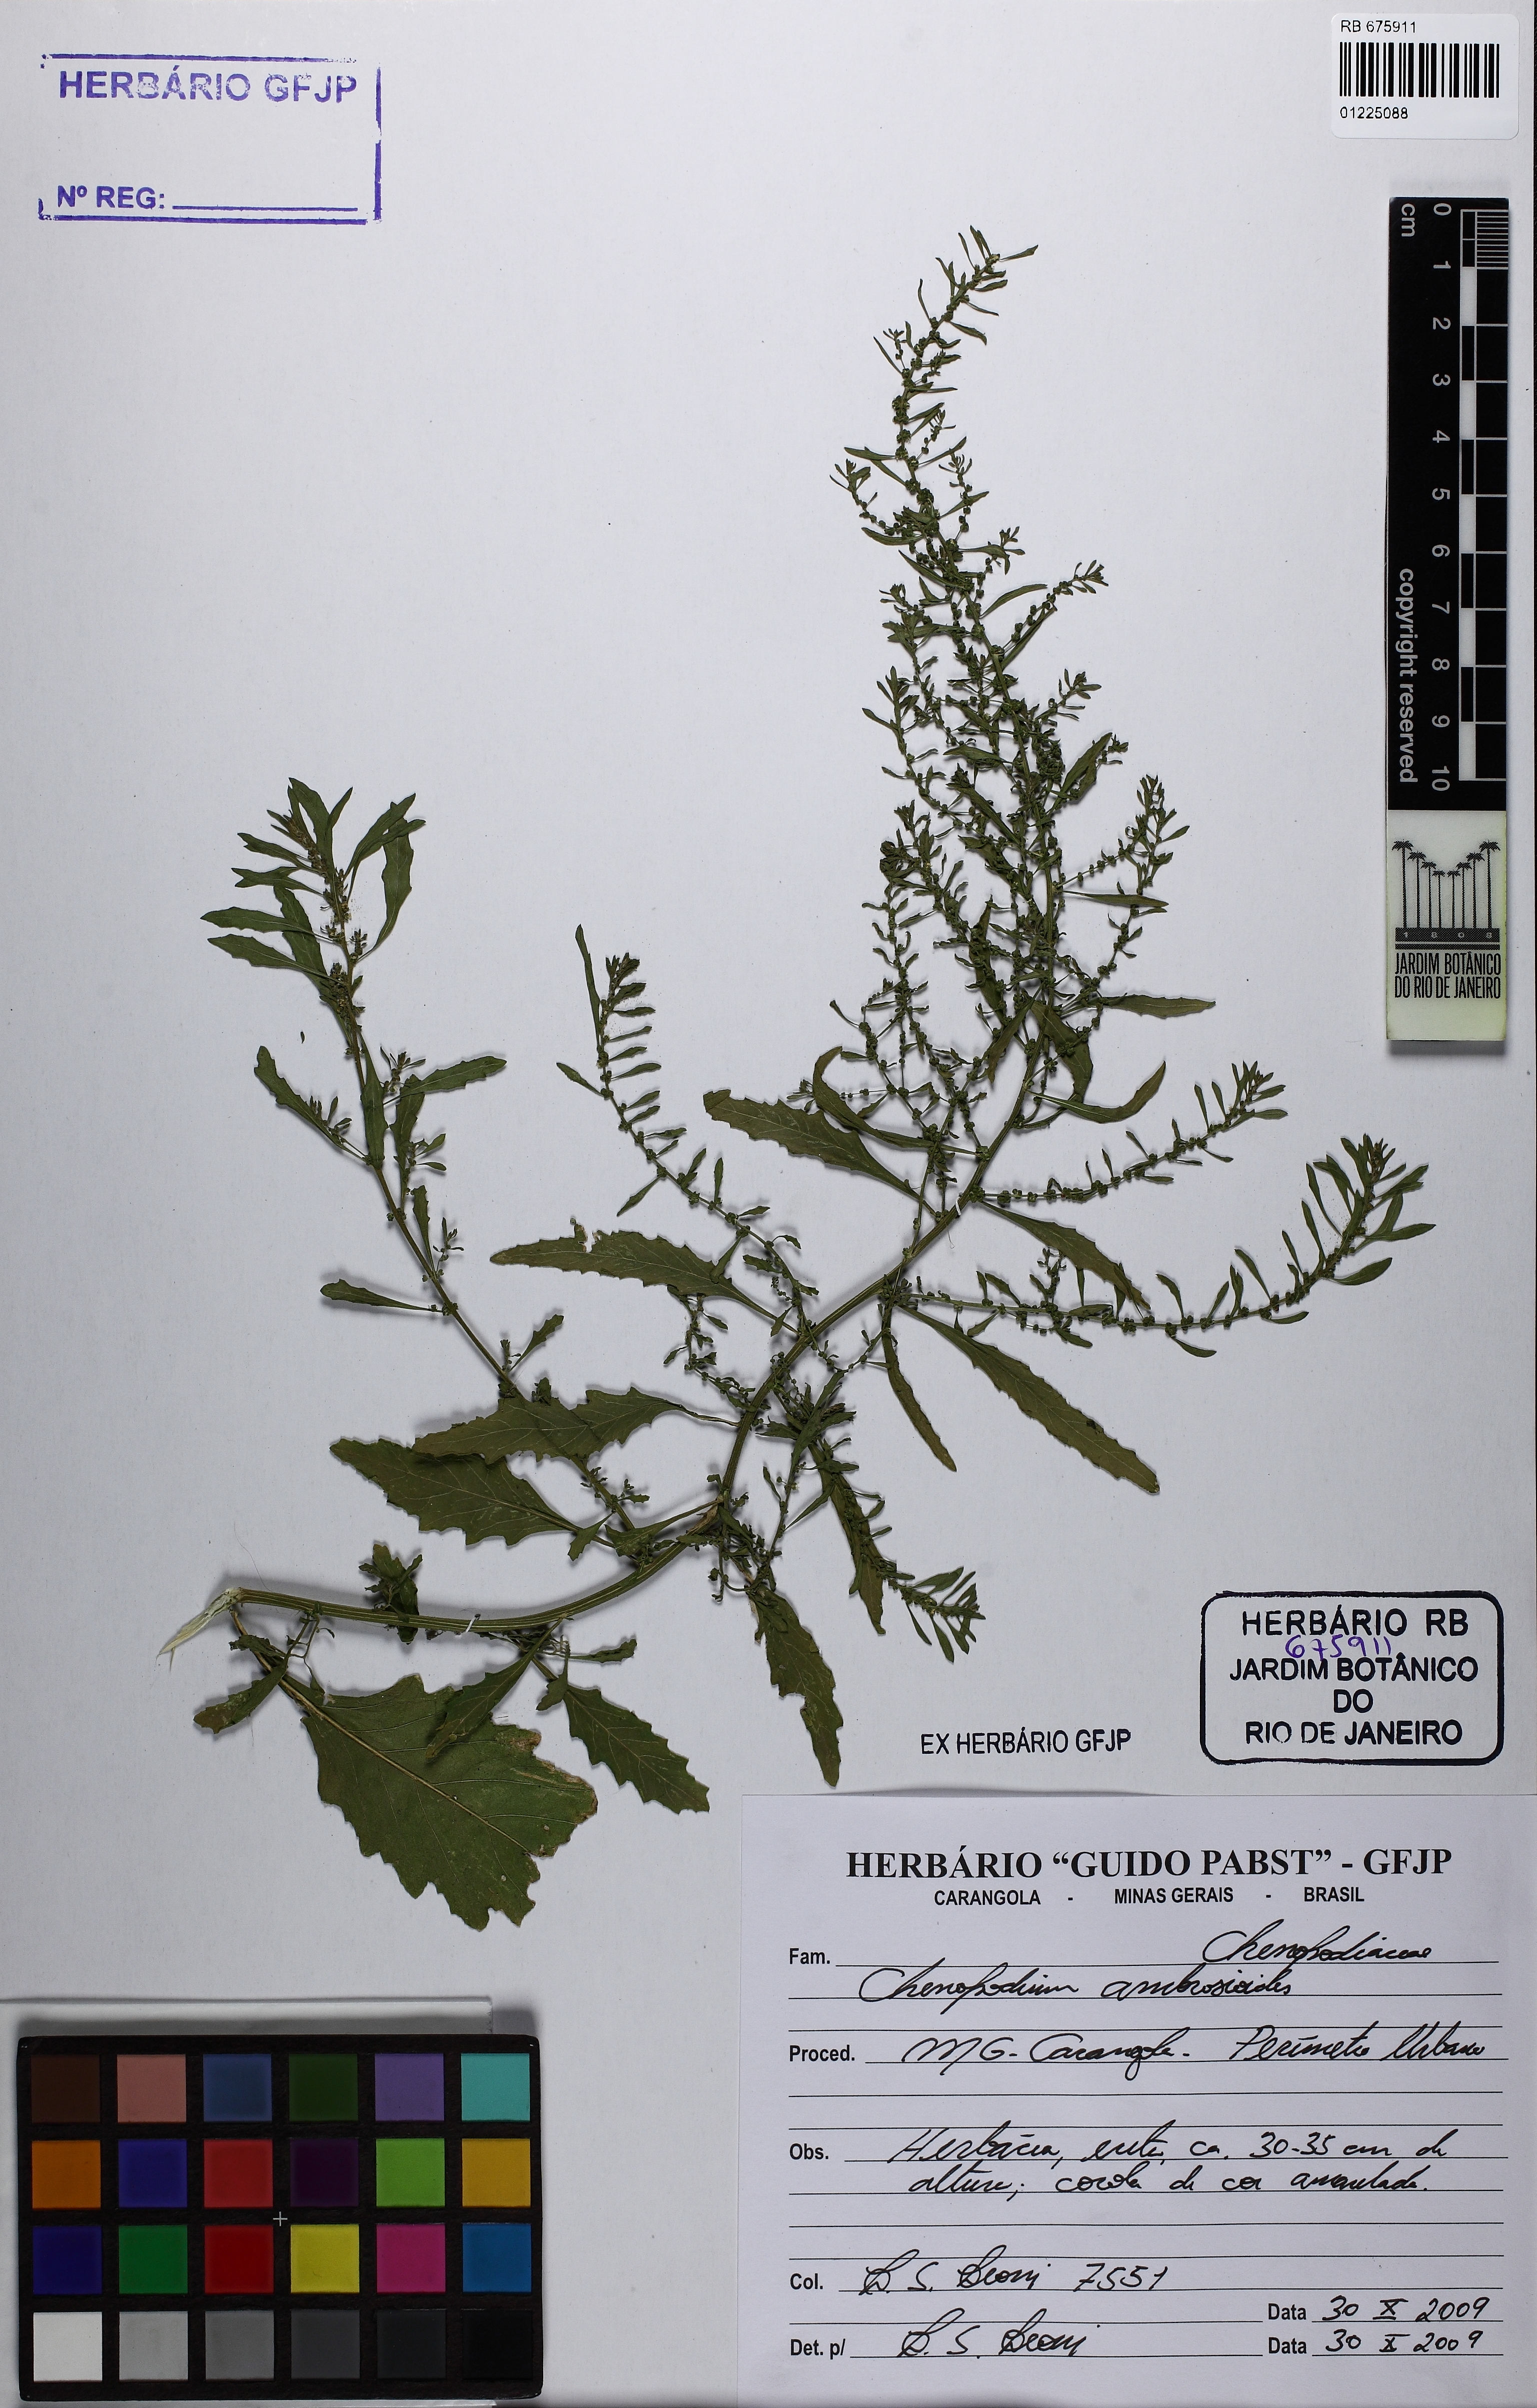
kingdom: Plantae
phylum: Tracheophyta
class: Magnoliopsida
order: Caryophyllales
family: Amaranthaceae
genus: Dysphania
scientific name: Dysphania ambrosioides
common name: Wormseed
